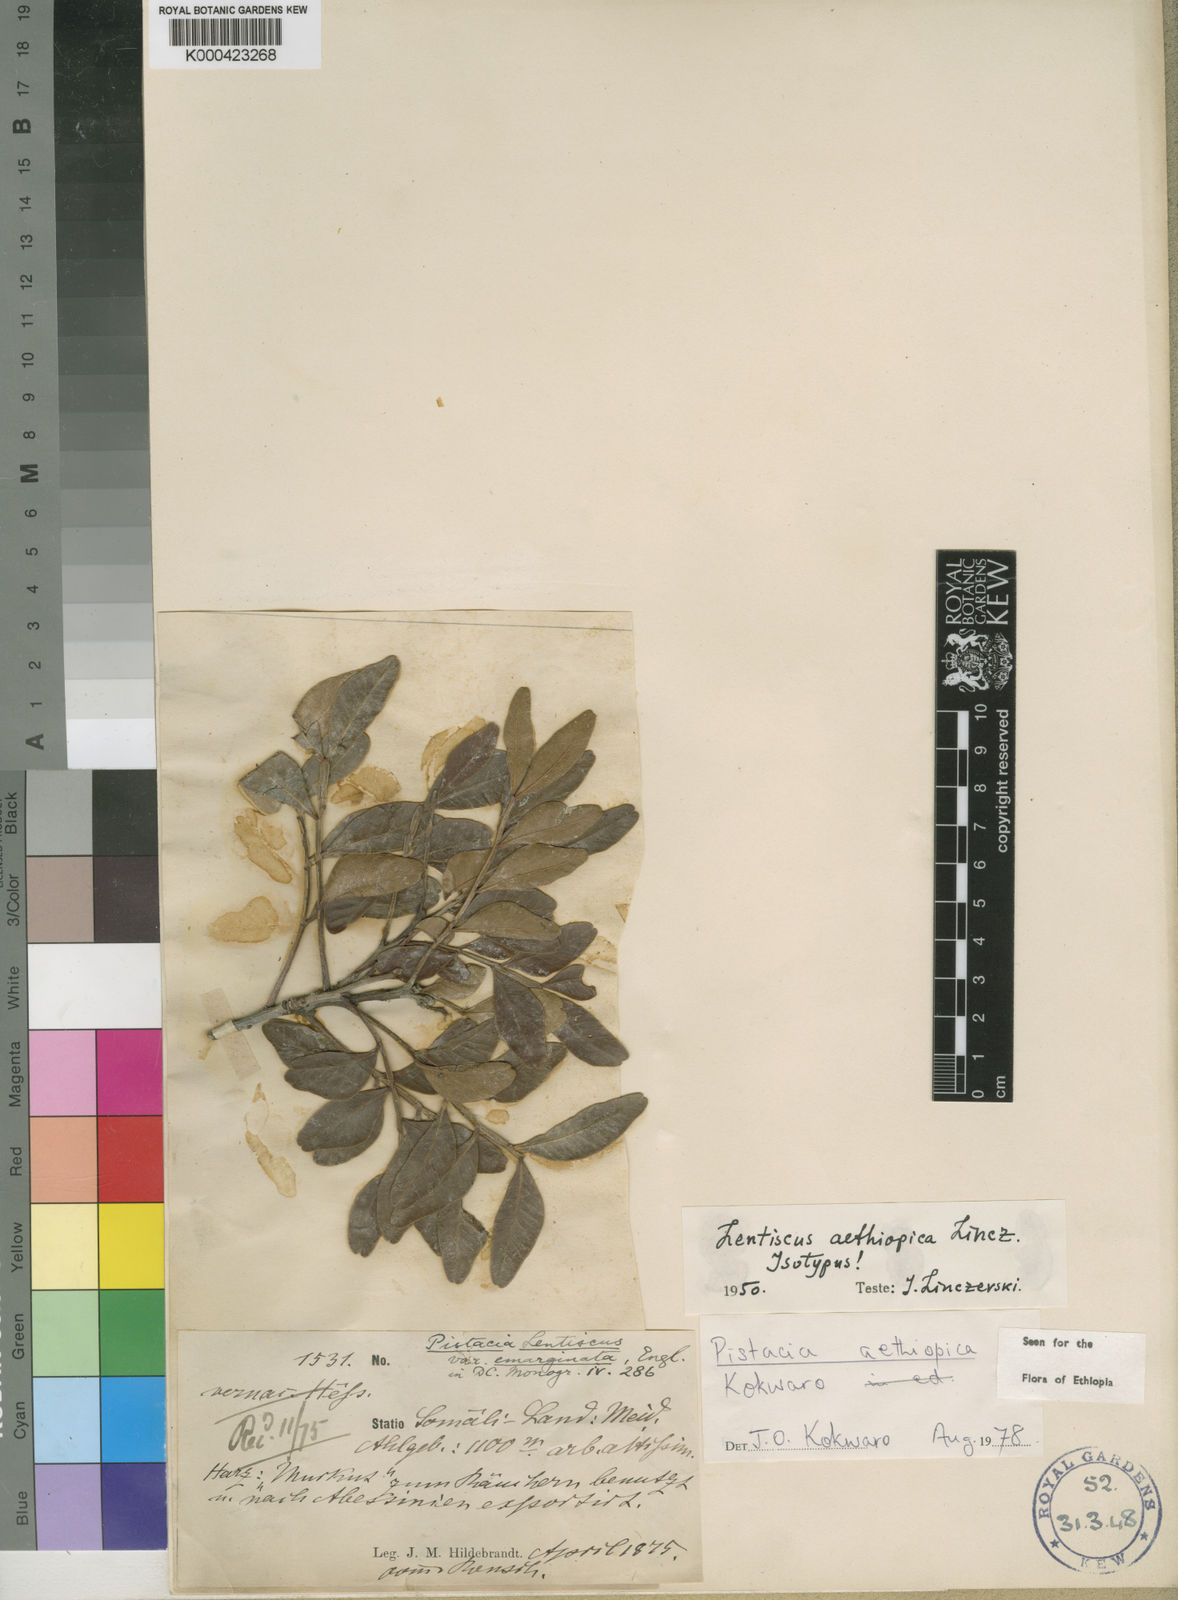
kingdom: Plantae
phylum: Tracheophyta
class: Magnoliopsida
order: Sapindales
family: Anacardiaceae
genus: Pistacia
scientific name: Pistacia lentiscus
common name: Lentisk
